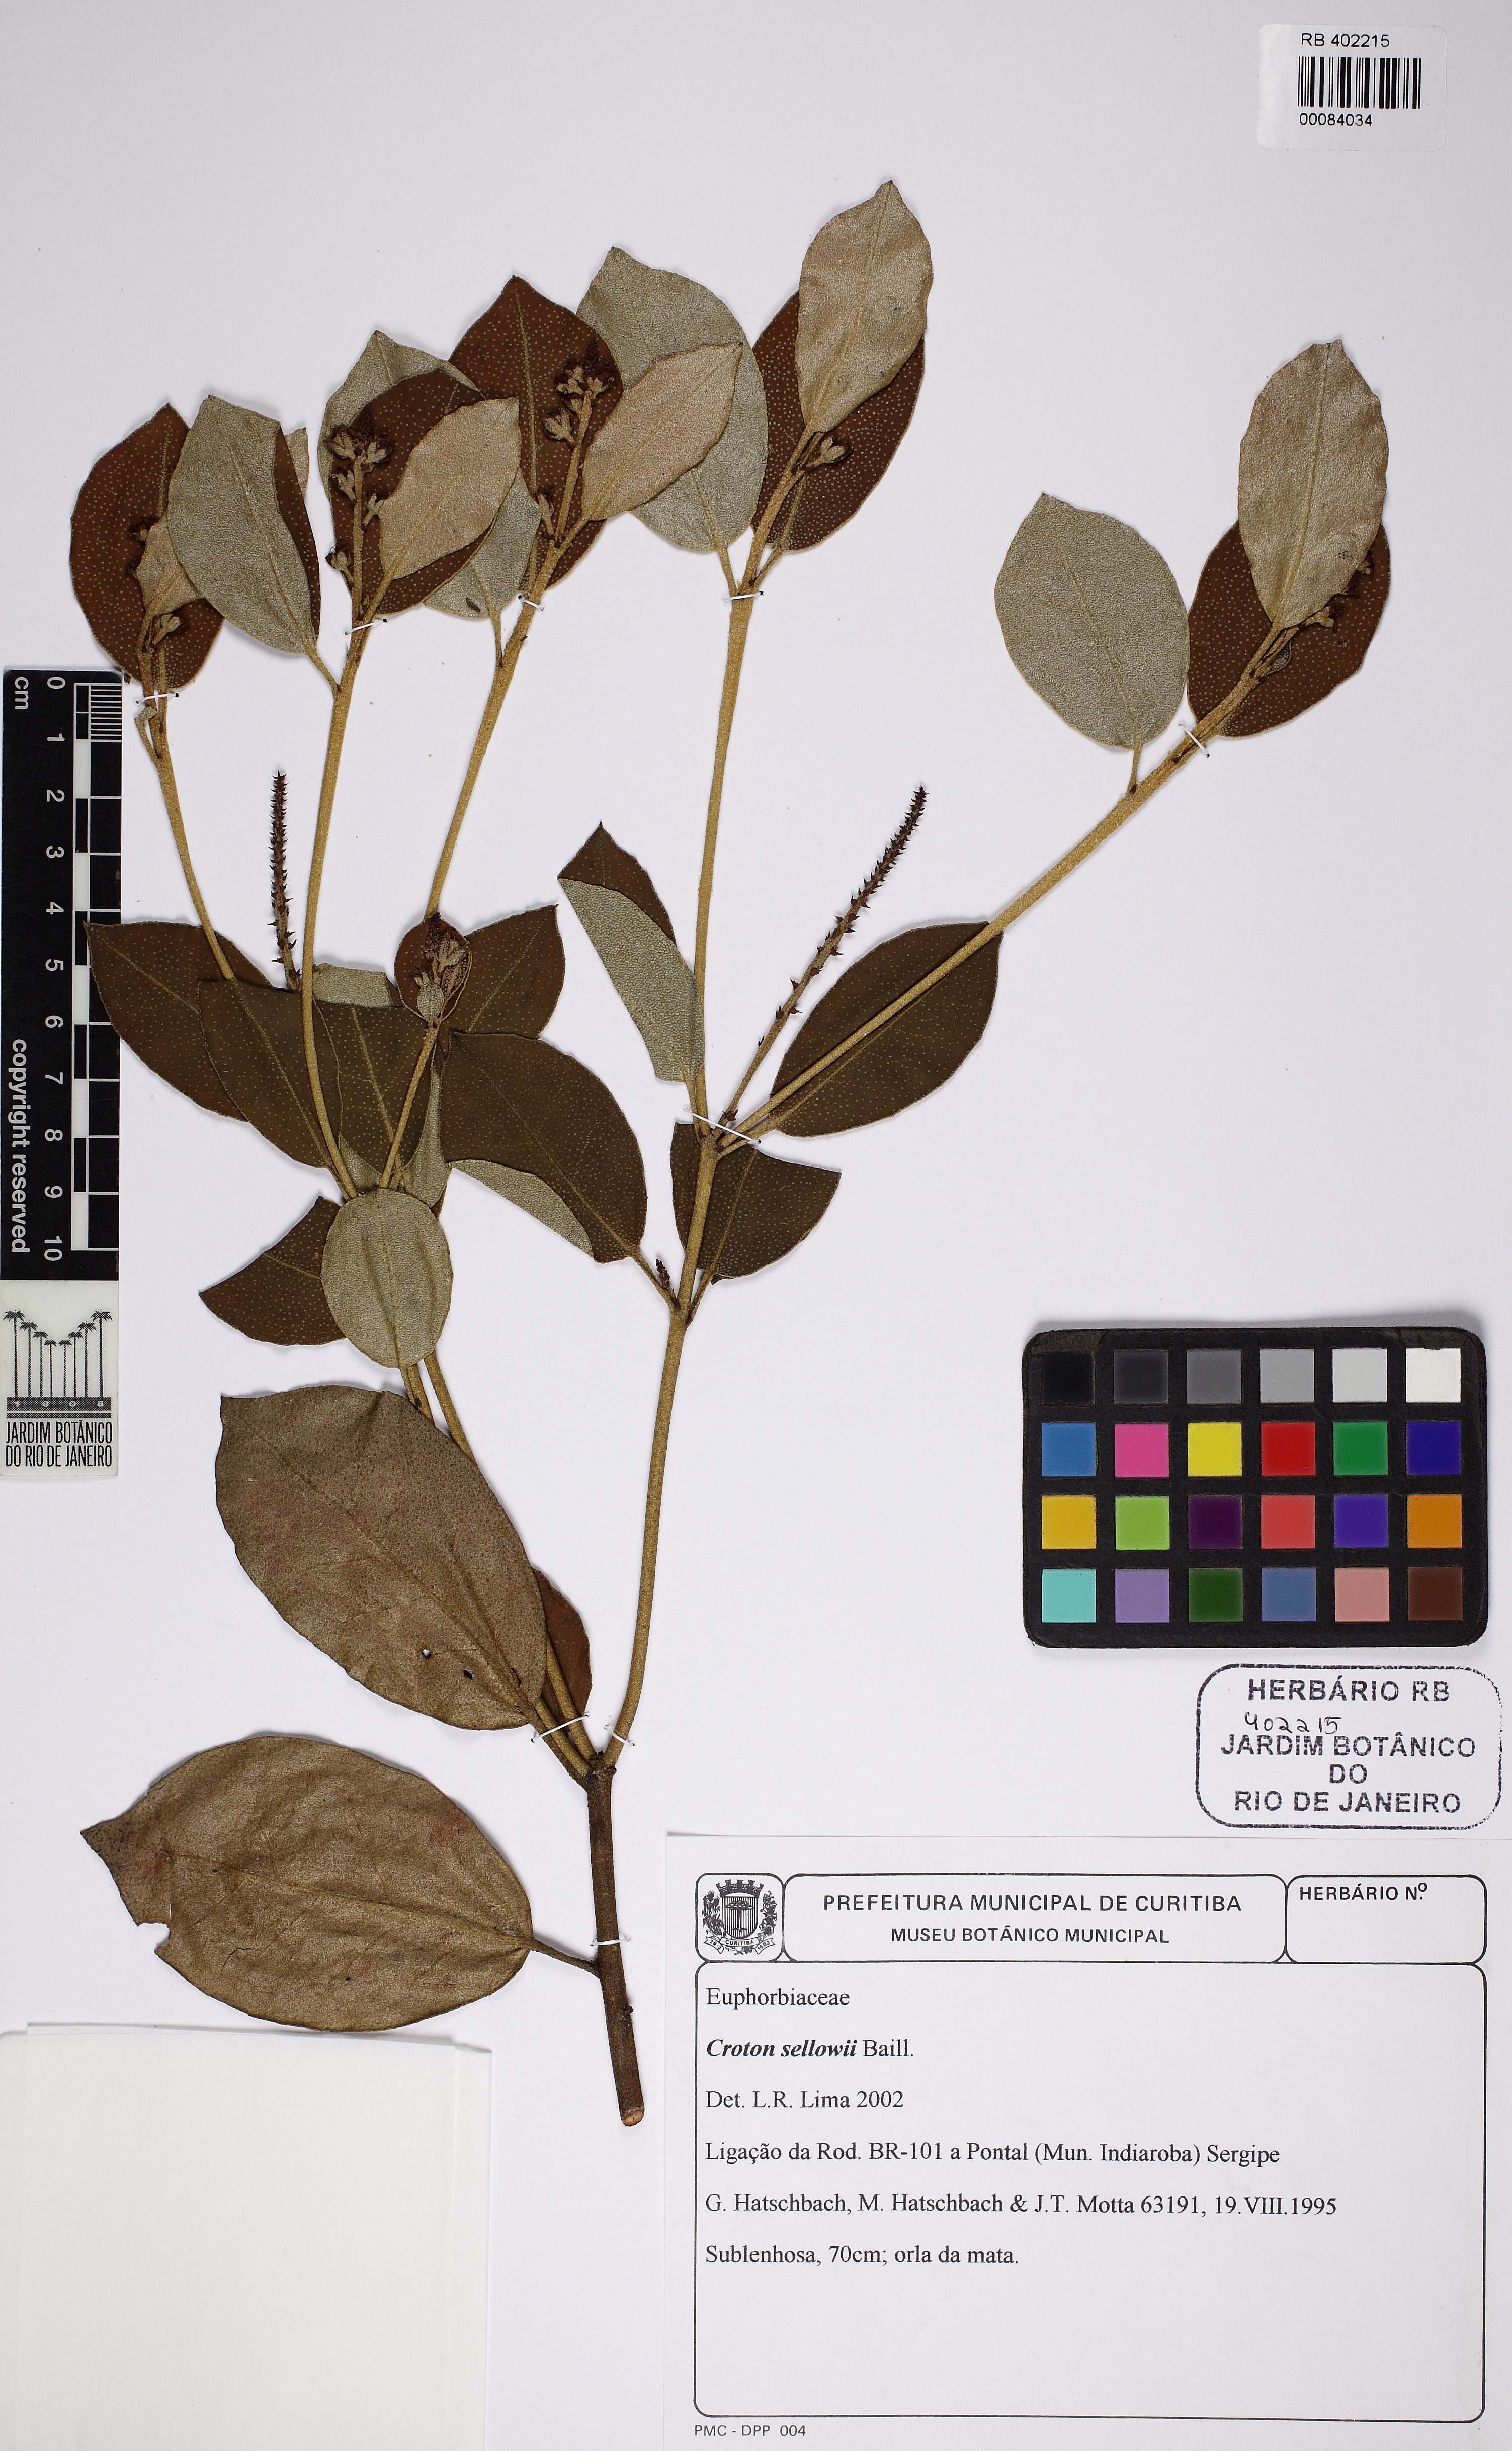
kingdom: Plantae
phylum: Tracheophyta
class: Magnoliopsida
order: Malpighiales
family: Euphorbiaceae
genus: Croton
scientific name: Croton sellowii
